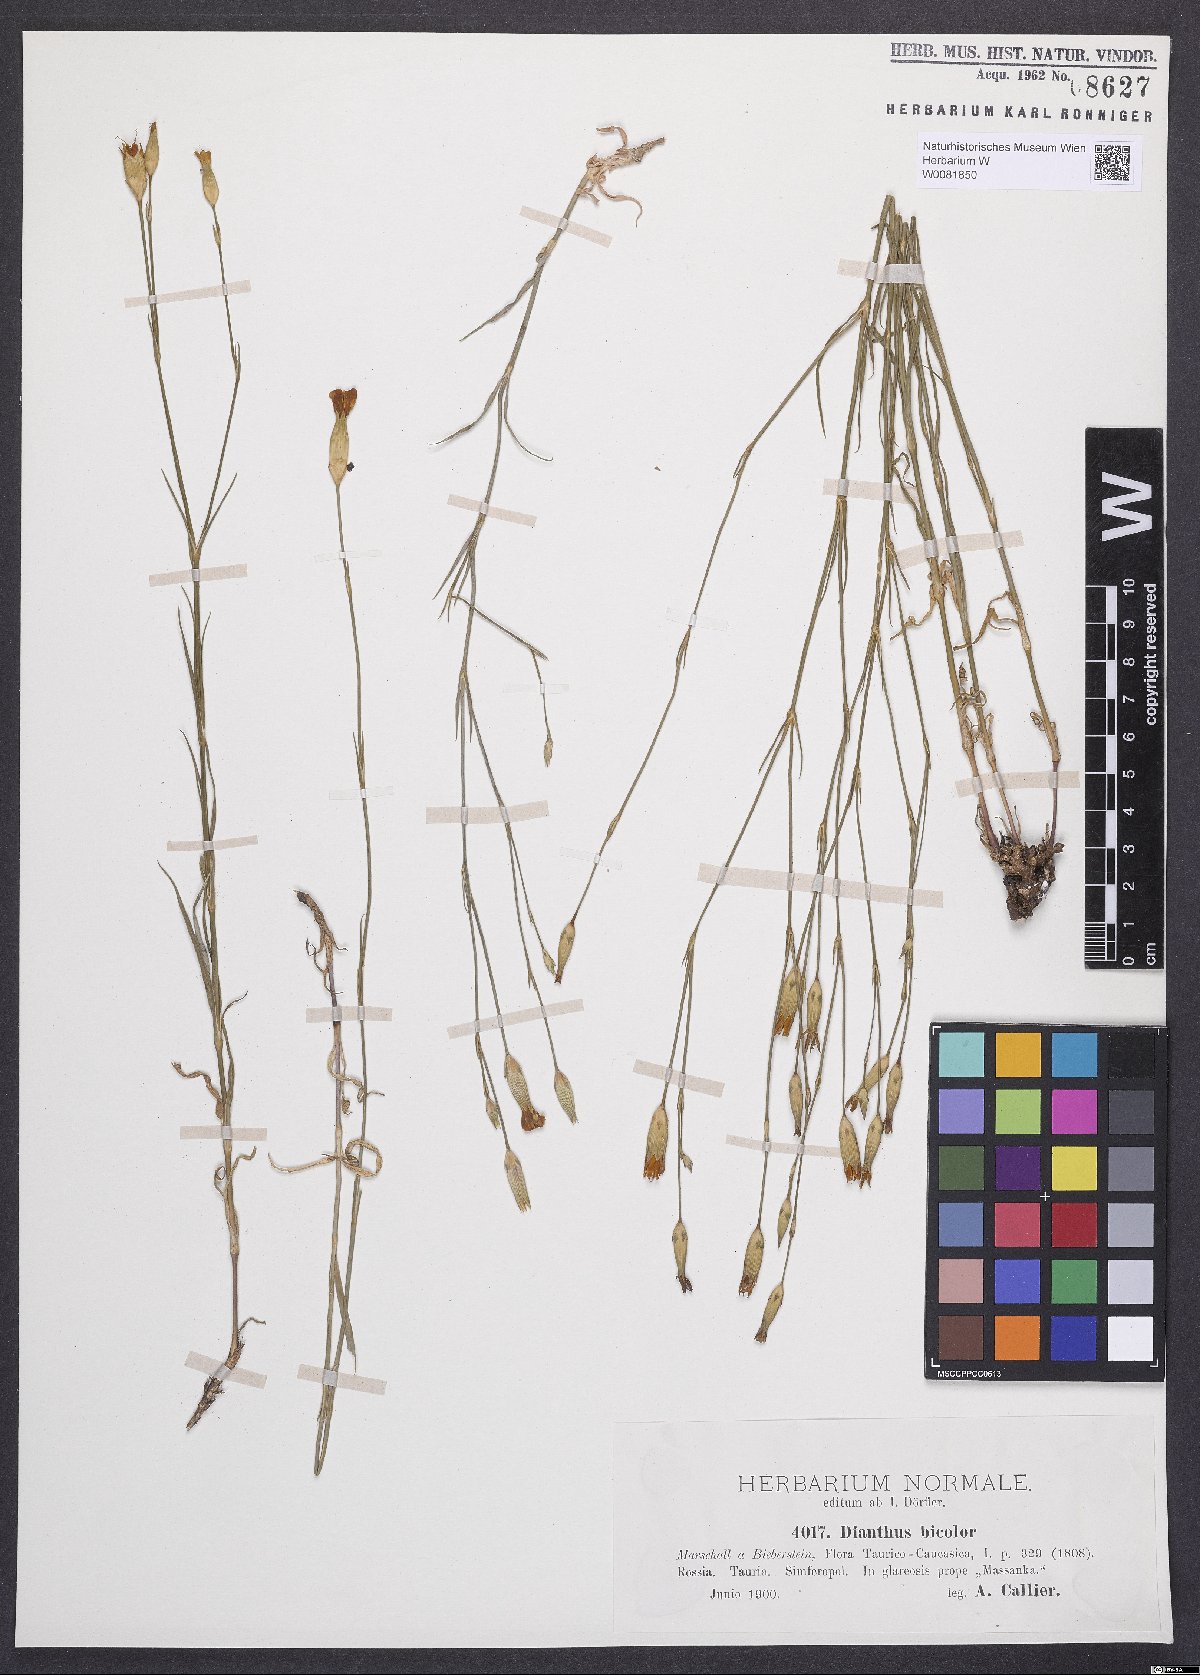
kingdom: Plantae
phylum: Tracheophyta
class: Magnoliopsida
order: Caryophyllales
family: Caryophyllaceae
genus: Dianthus
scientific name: Dianthus campestris
